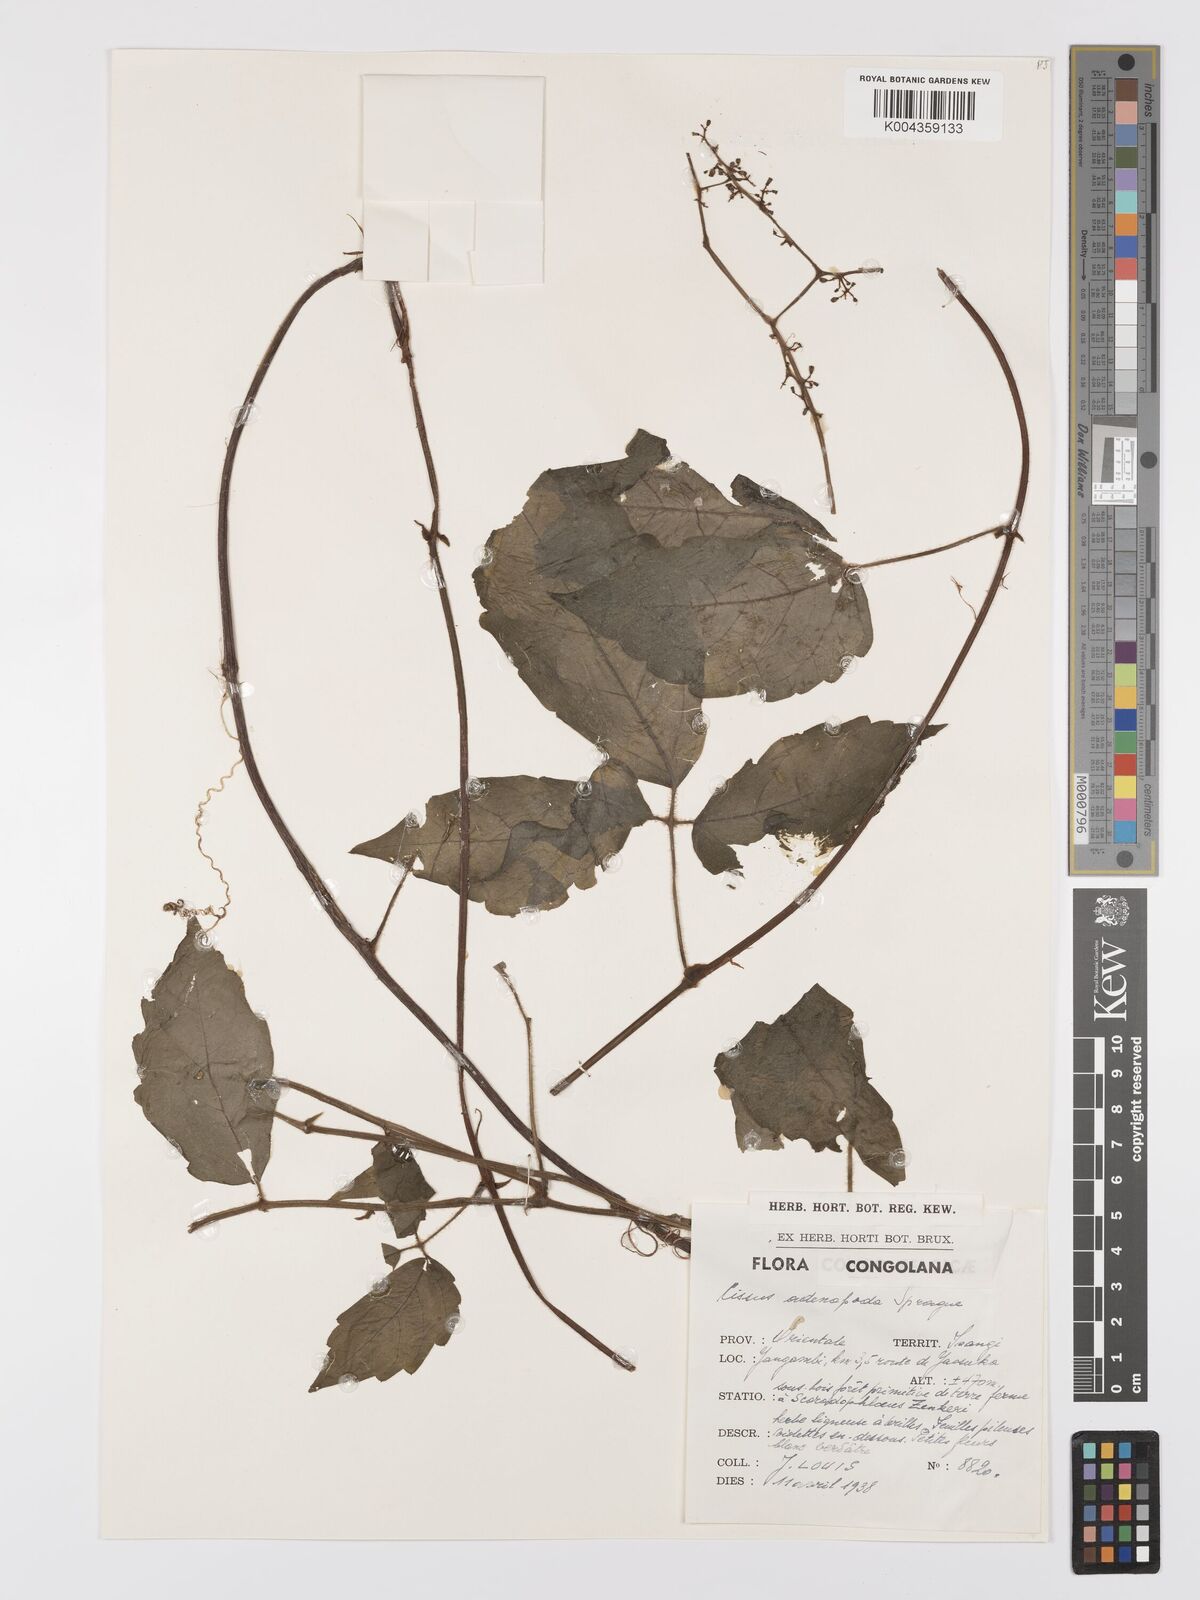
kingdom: Plantae
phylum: Tracheophyta
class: Magnoliopsida
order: Vitales
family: Vitaceae
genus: Cyphostemma
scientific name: Cyphostemma adenopodum
